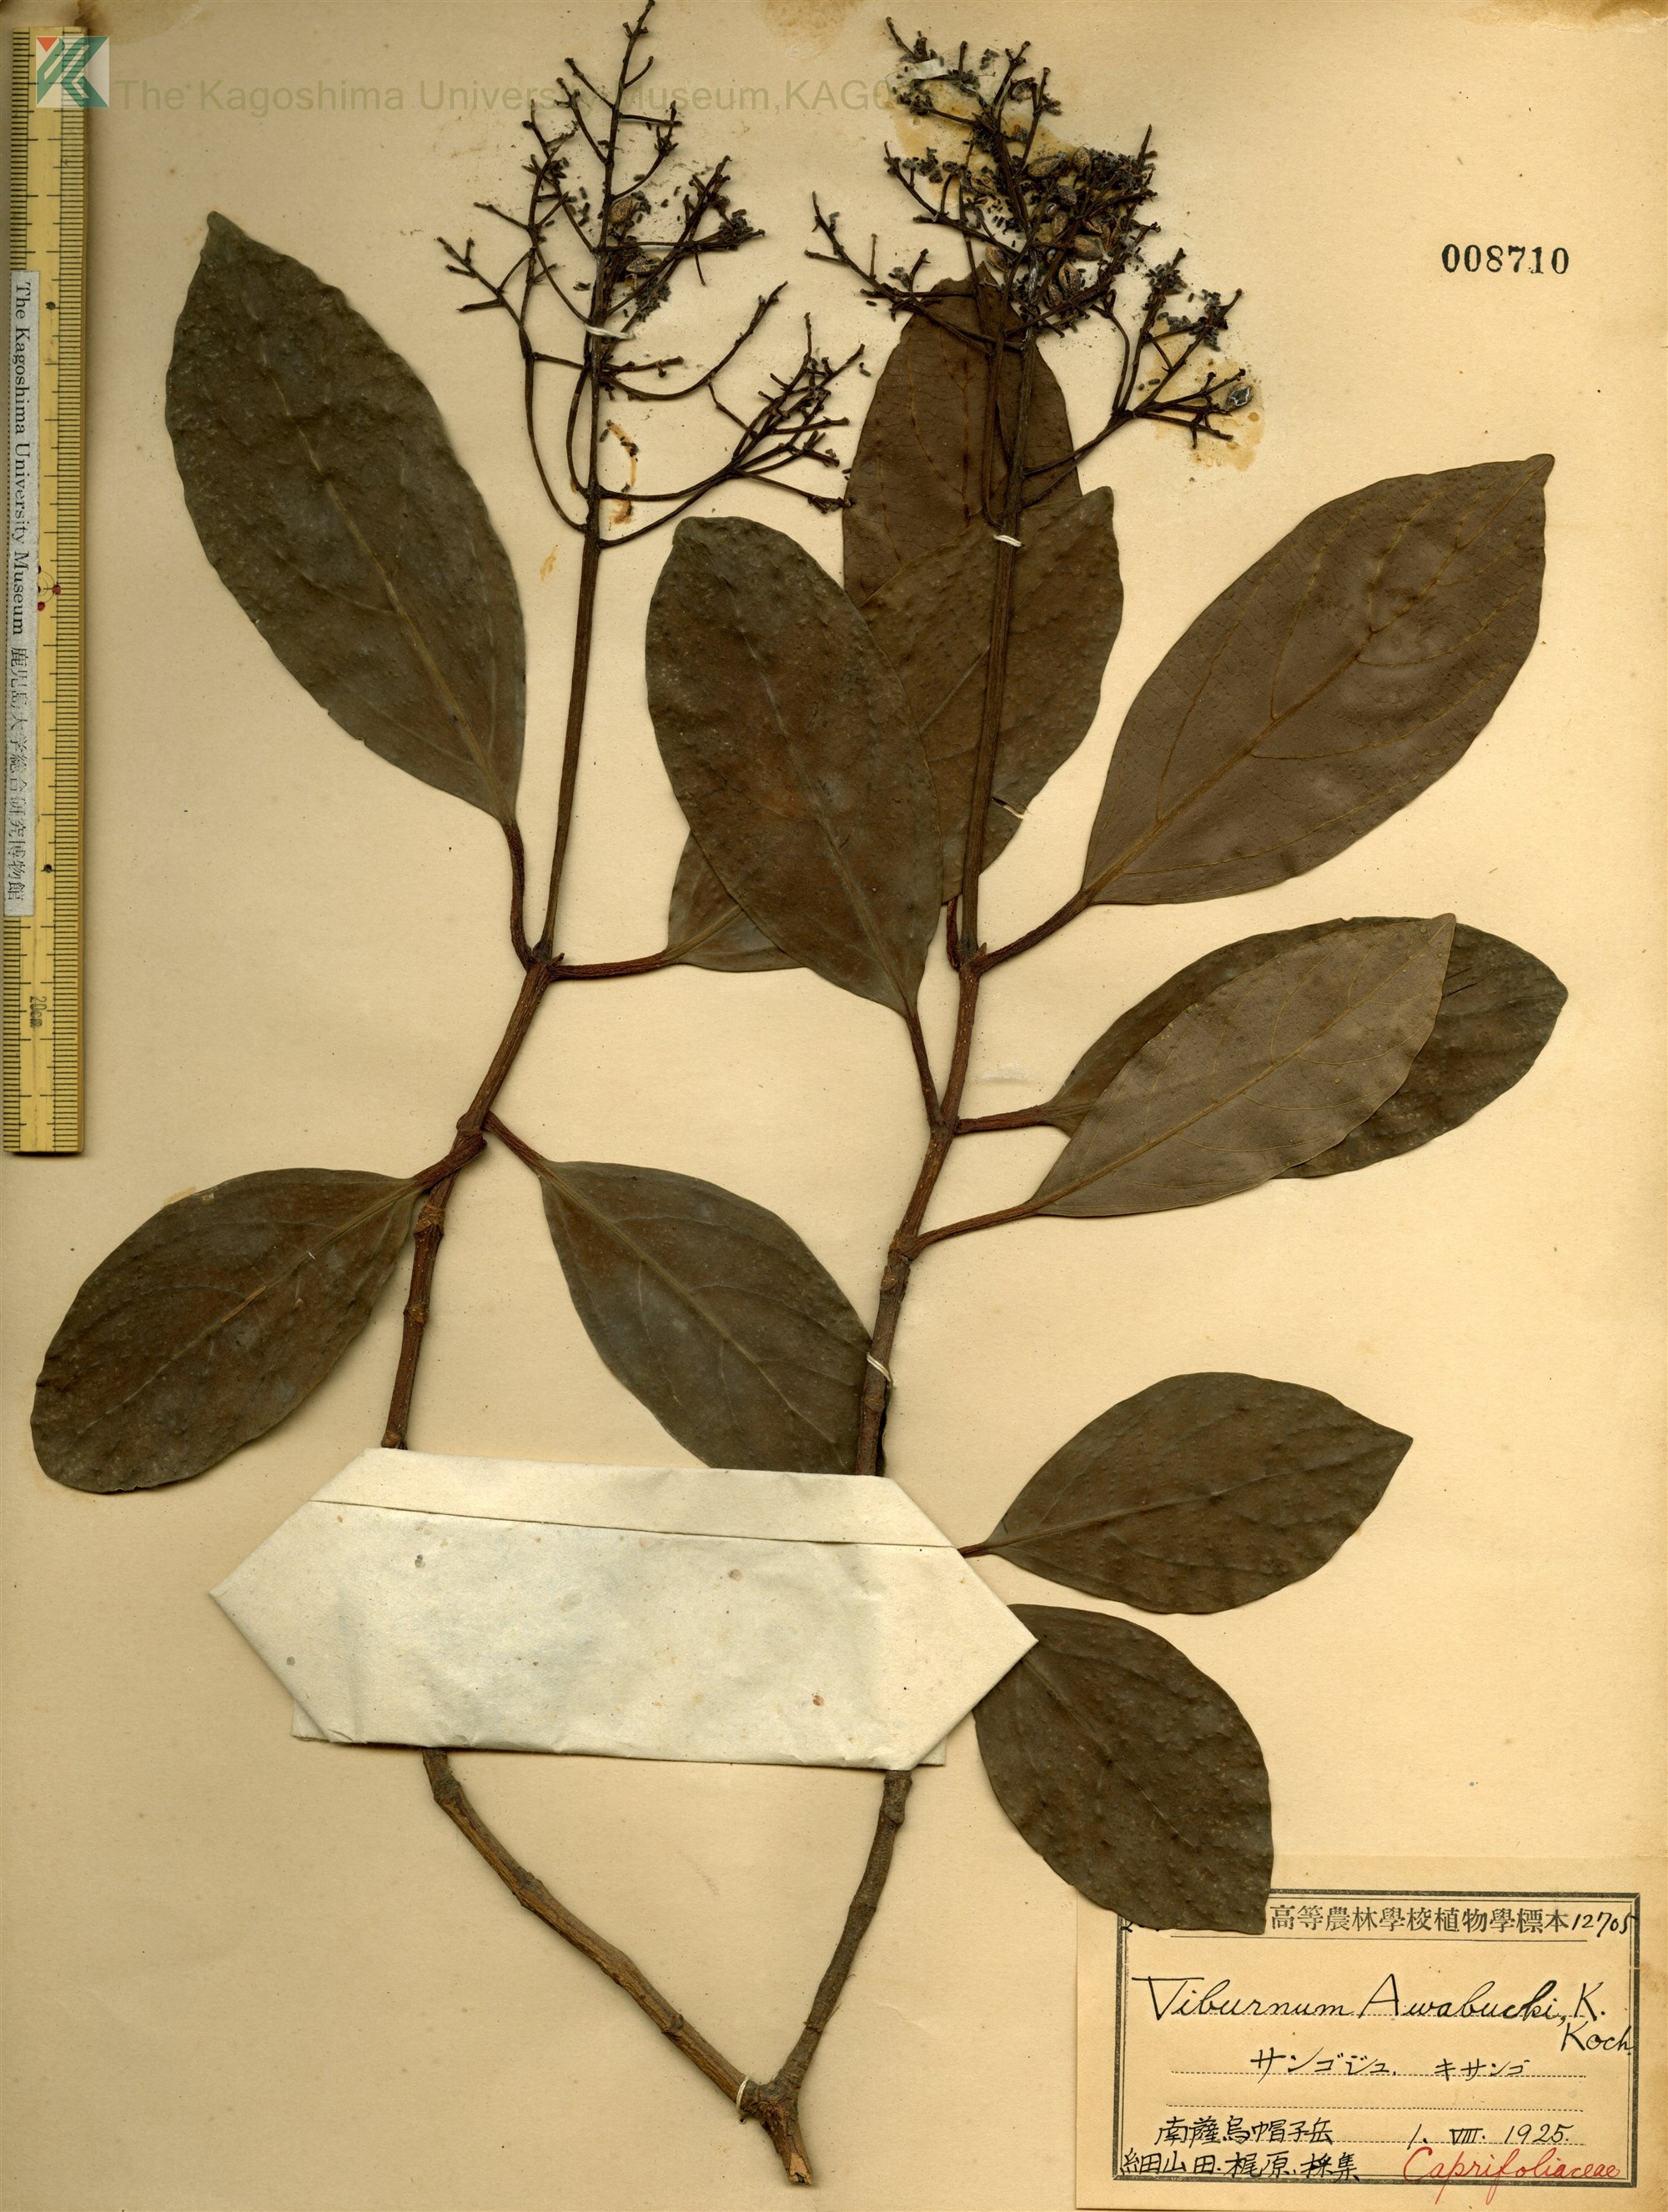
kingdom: Plantae
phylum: Tracheophyta
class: Magnoliopsida
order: Dipsacales
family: Viburnaceae
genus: Viburnum
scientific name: Viburnum odoratissimum
